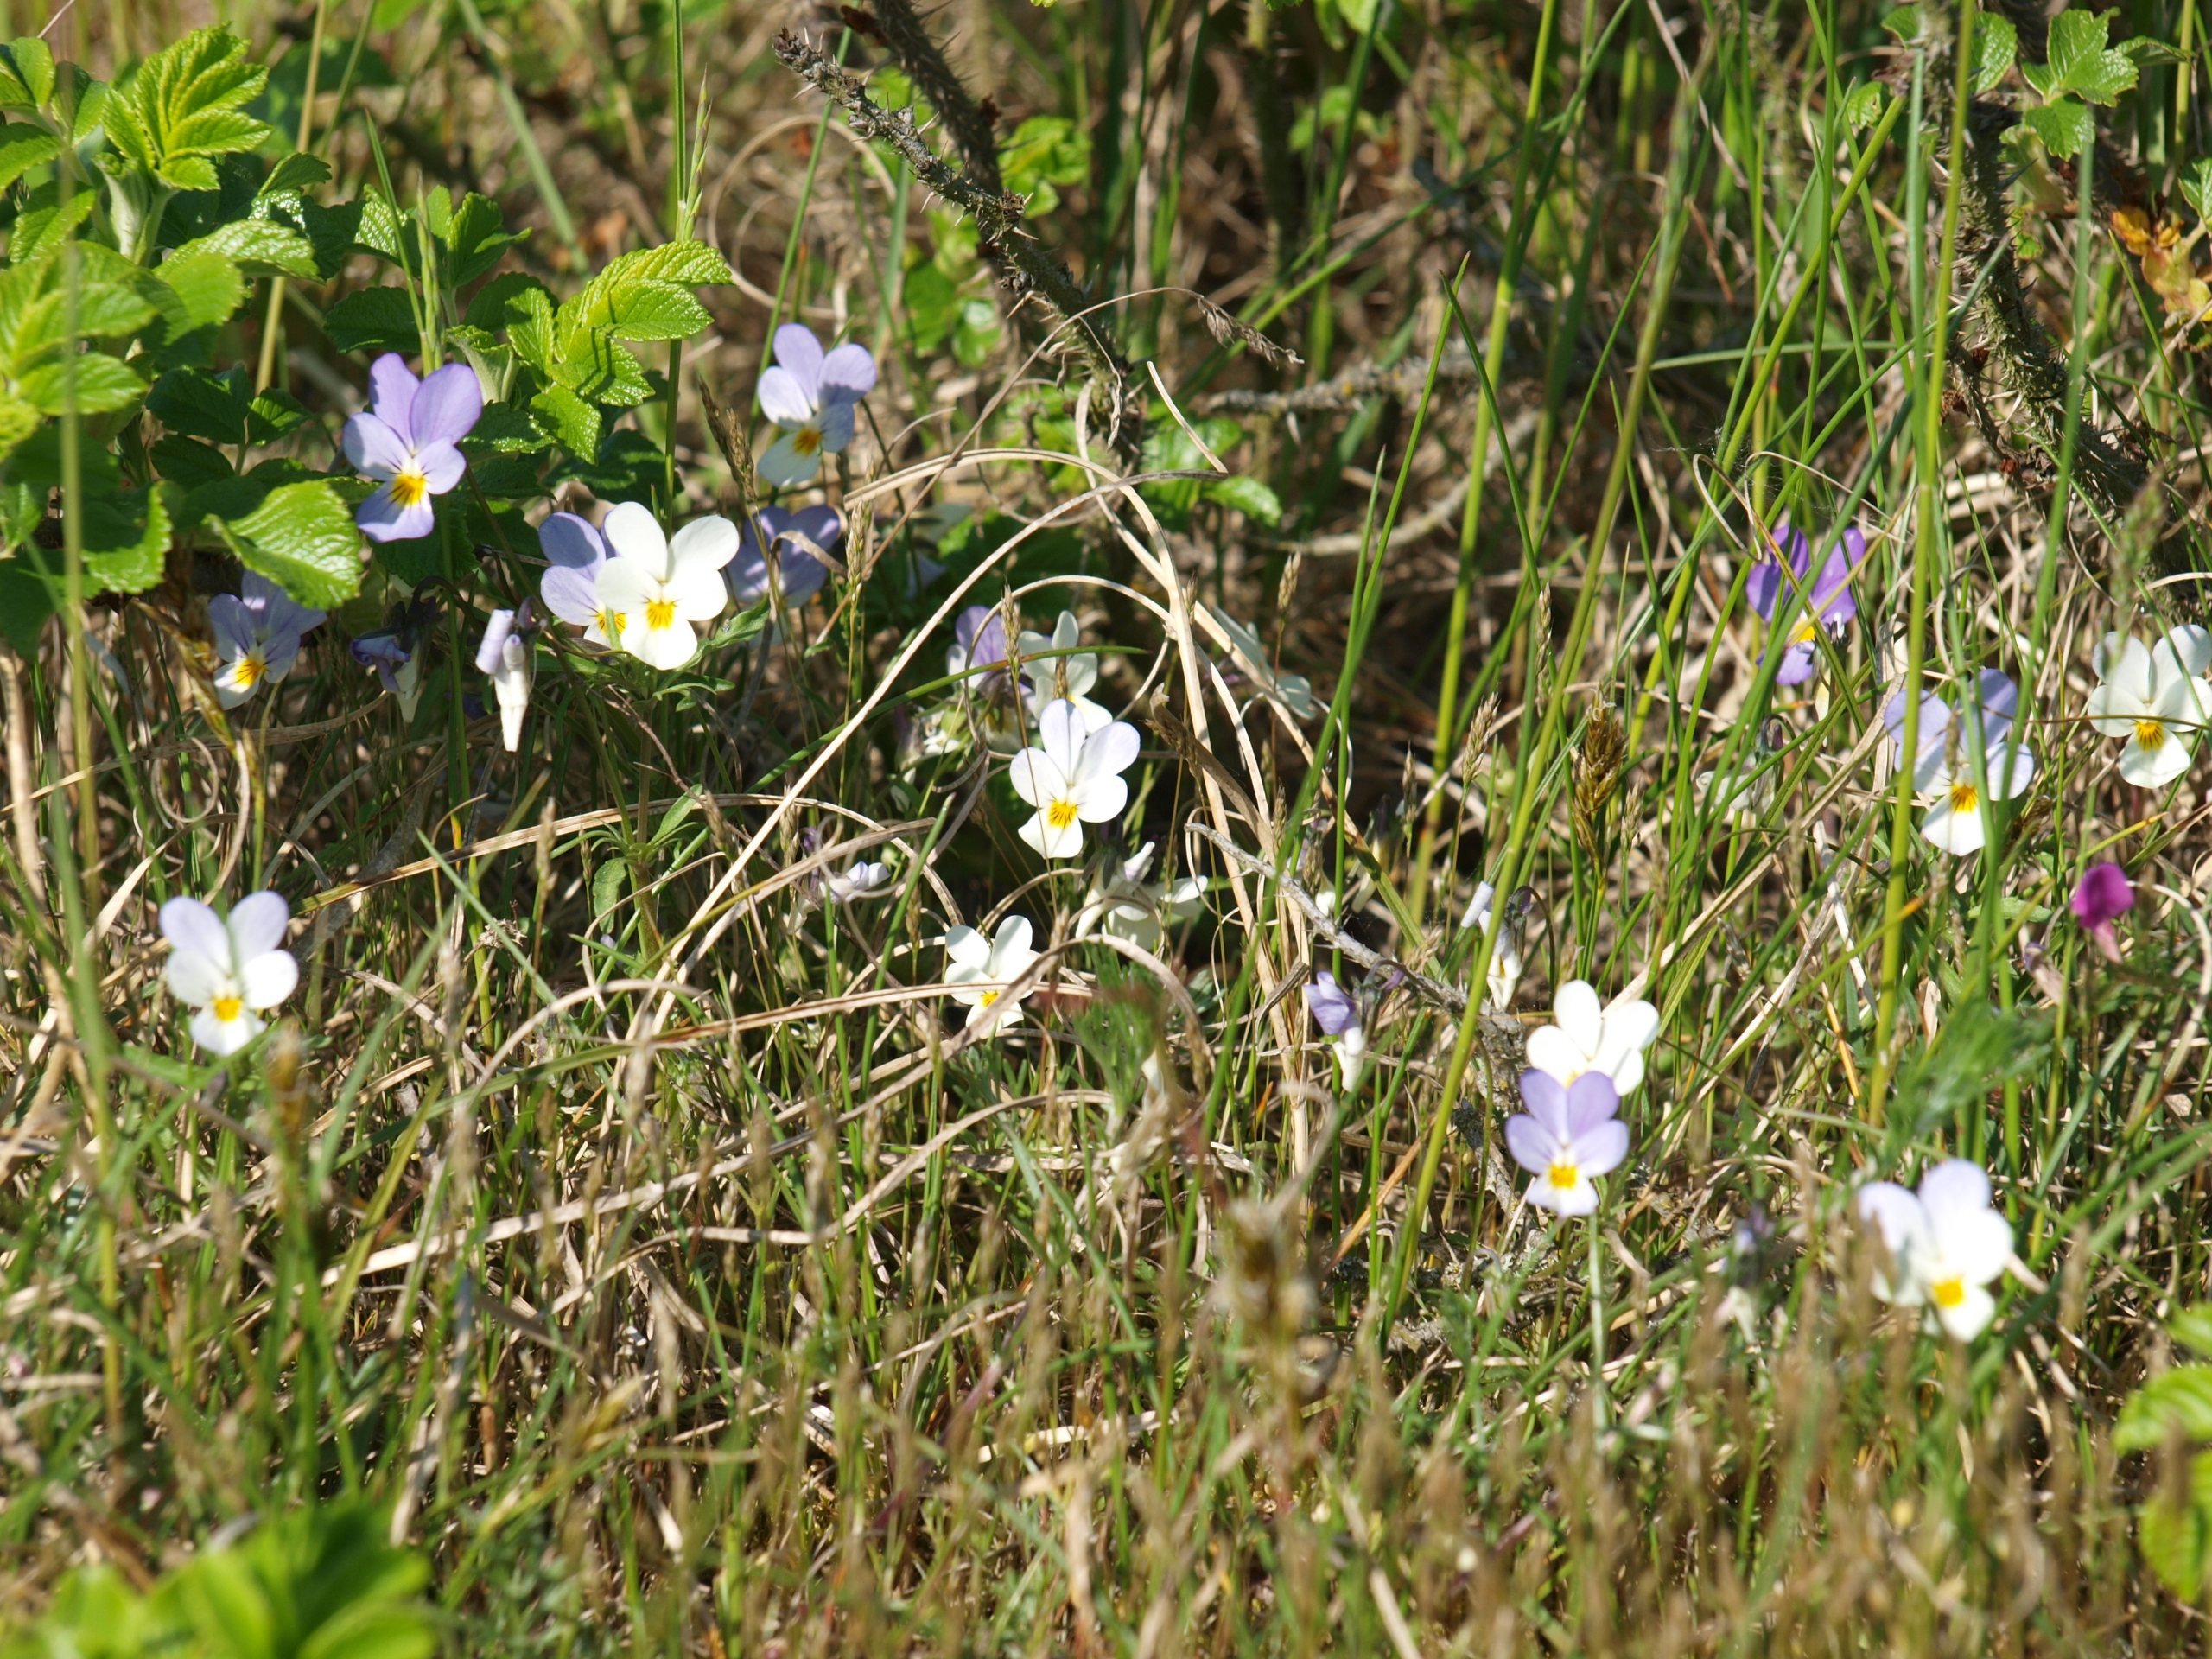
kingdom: Plantae
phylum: Tracheophyta
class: Magnoliopsida
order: Malpighiales
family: Violaceae
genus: Viola
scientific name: Viola tricolor
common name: Stedmoderblomst
